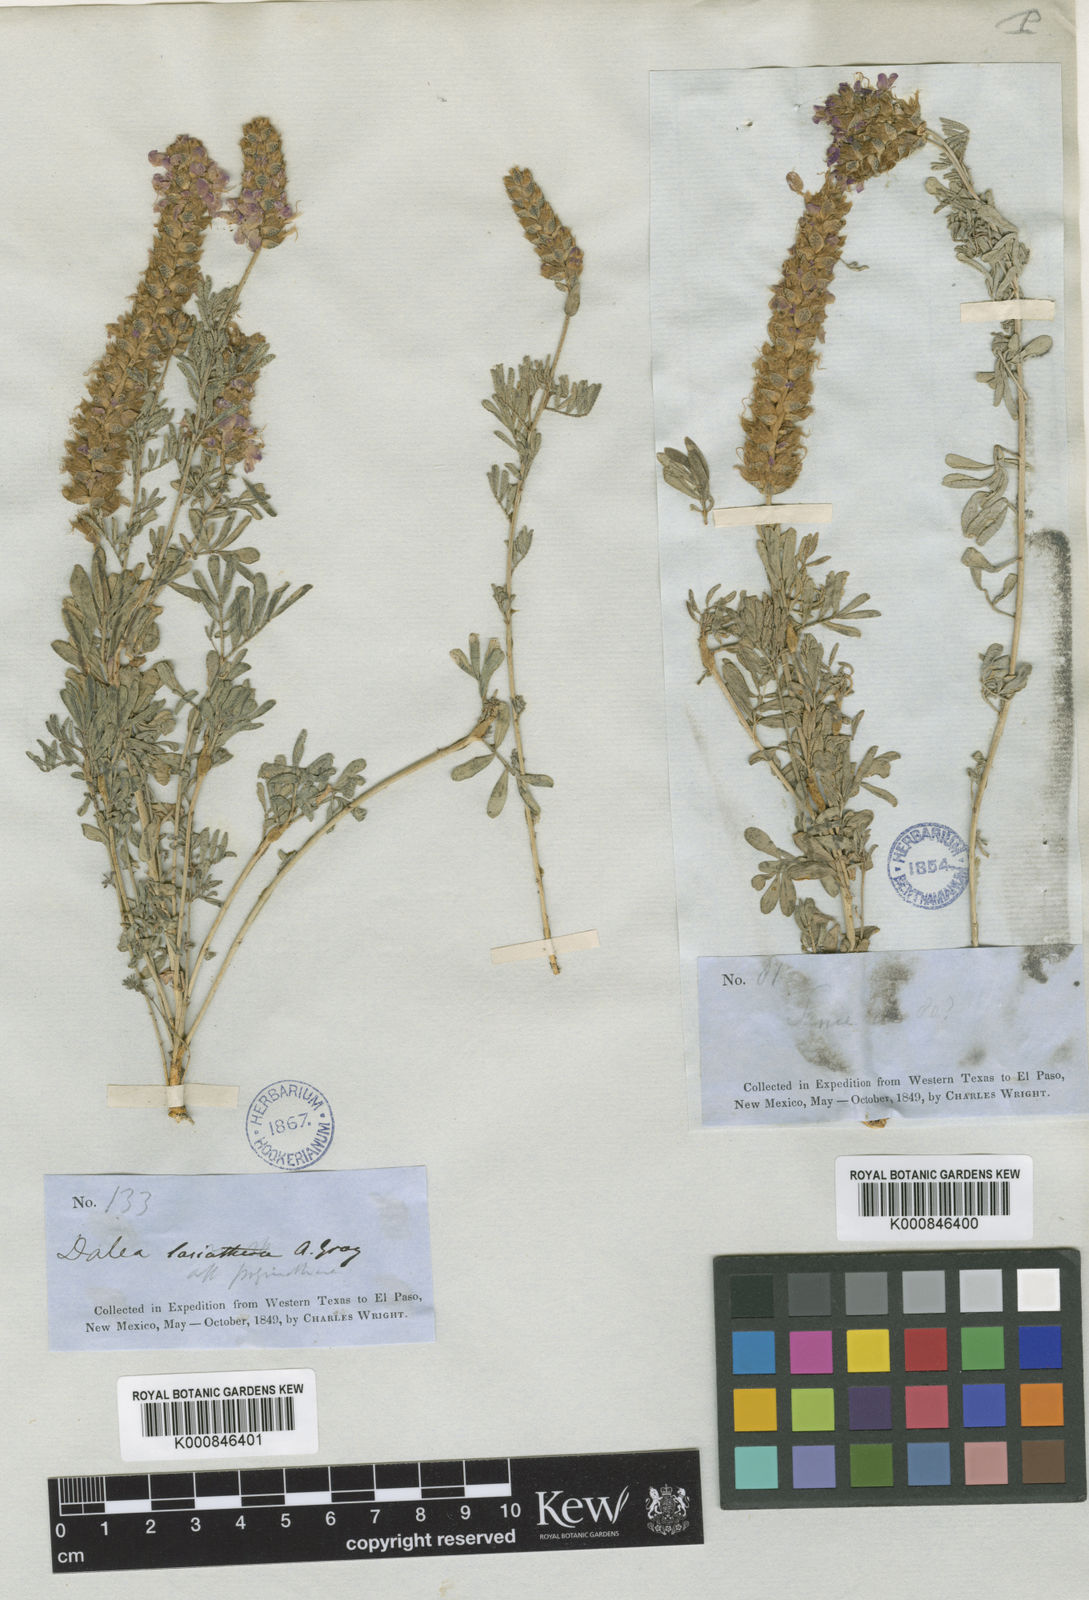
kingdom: Plantae
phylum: Tracheophyta
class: Magnoliopsida
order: Fabales
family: Fabaceae
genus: Dalea
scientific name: Dalea lasiathera
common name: Purple prairie-clover
